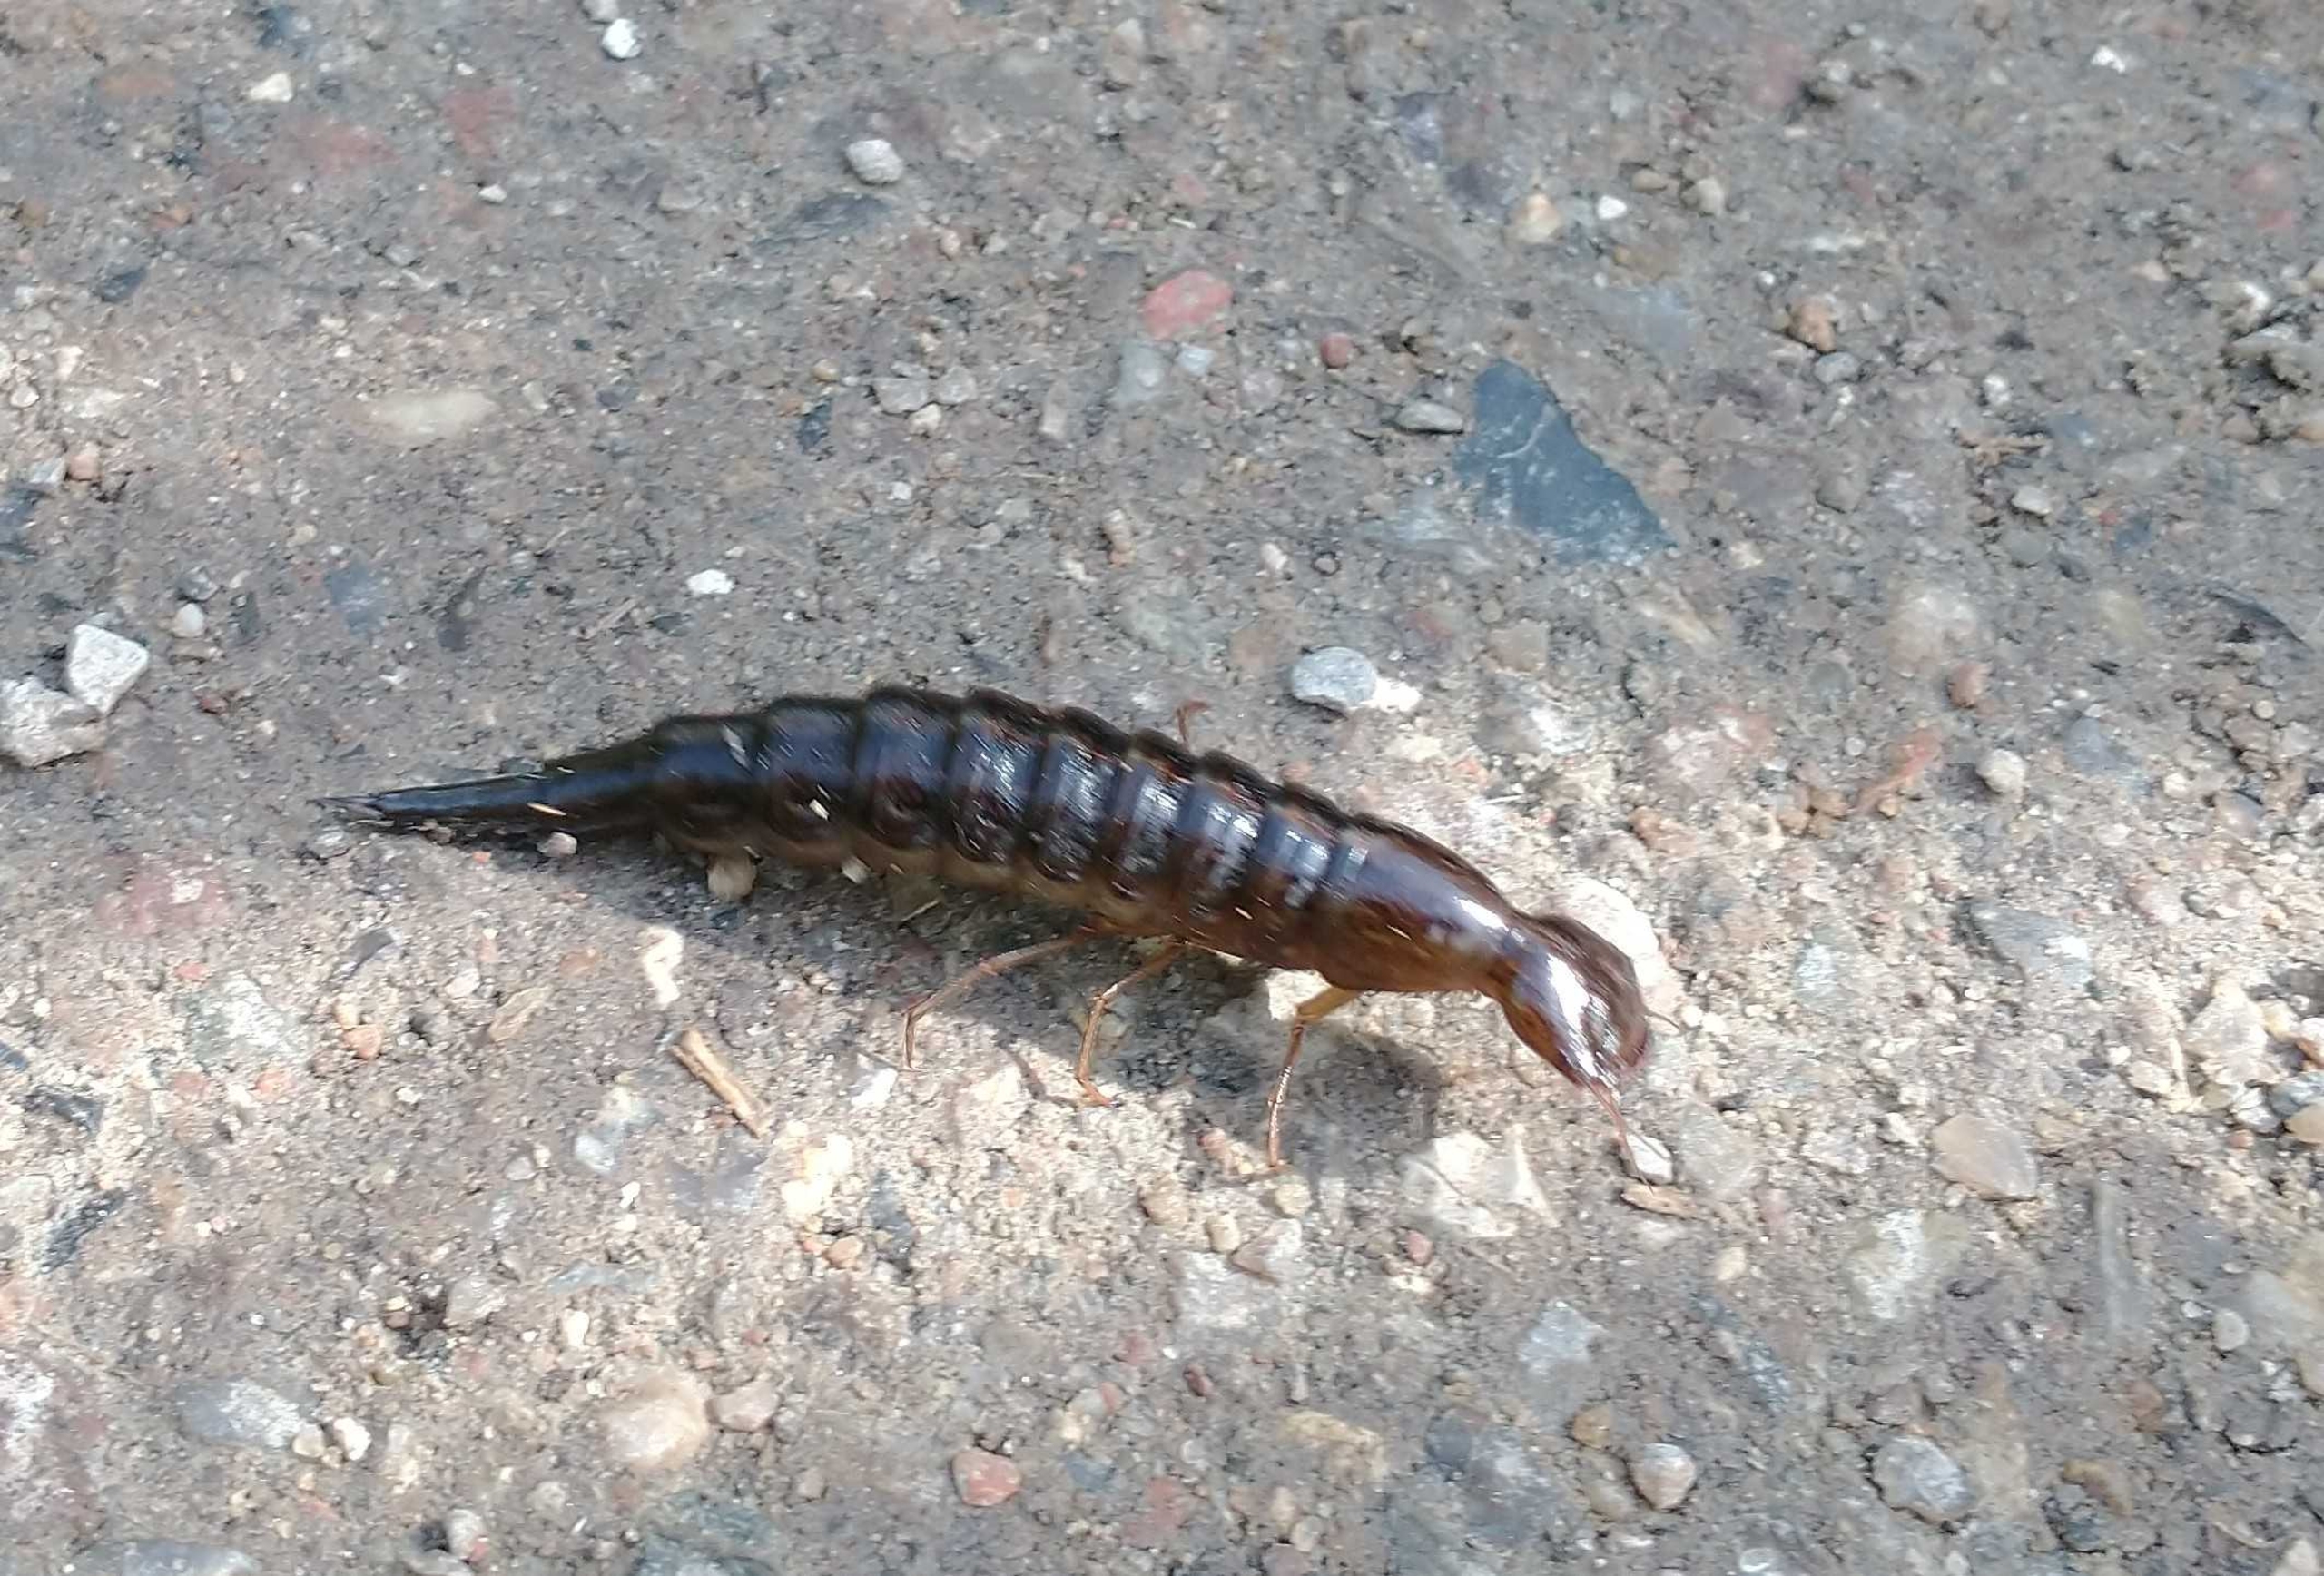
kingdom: Animalia
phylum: Arthropoda
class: Insecta
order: Coleoptera
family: Dytiscidae
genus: Dytiscus
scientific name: Dytiscus
